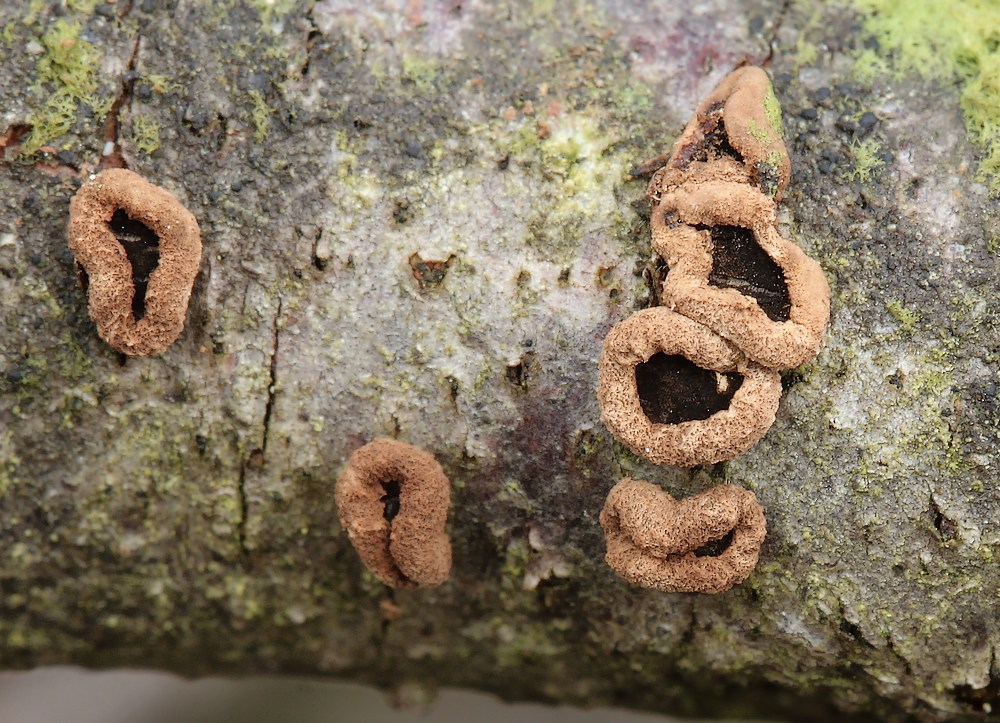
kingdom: Fungi
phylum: Ascomycota
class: Leotiomycetes
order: Helotiales
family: Cenangiaceae
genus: Velutarina
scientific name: Velutarina rufo-olivacea
